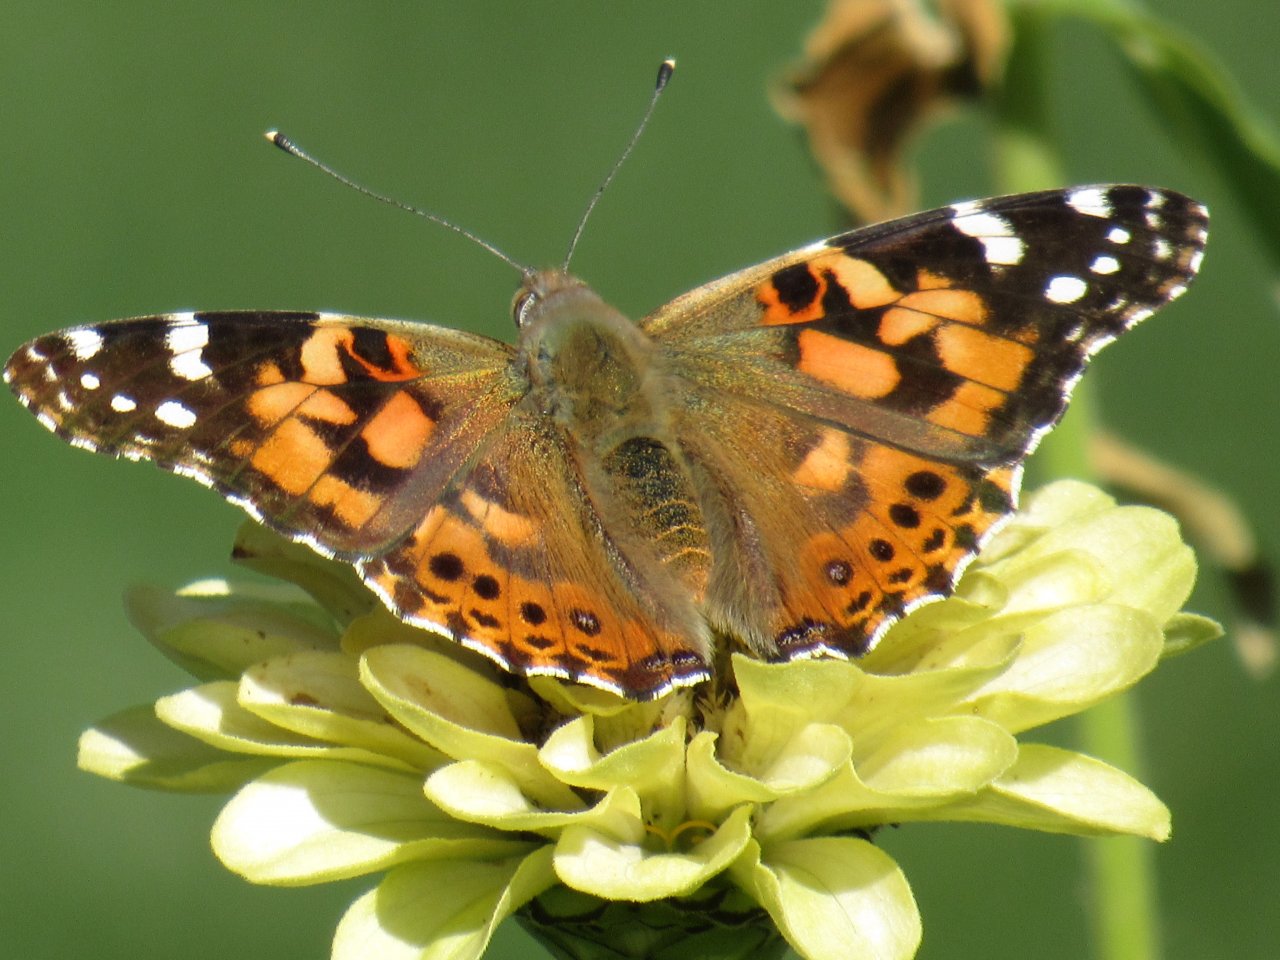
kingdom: Animalia
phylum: Arthropoda
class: Insecta
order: Lepidoptera
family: Nymphalidae
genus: Vanessa
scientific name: Vanessa cardui
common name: Painted Lady
